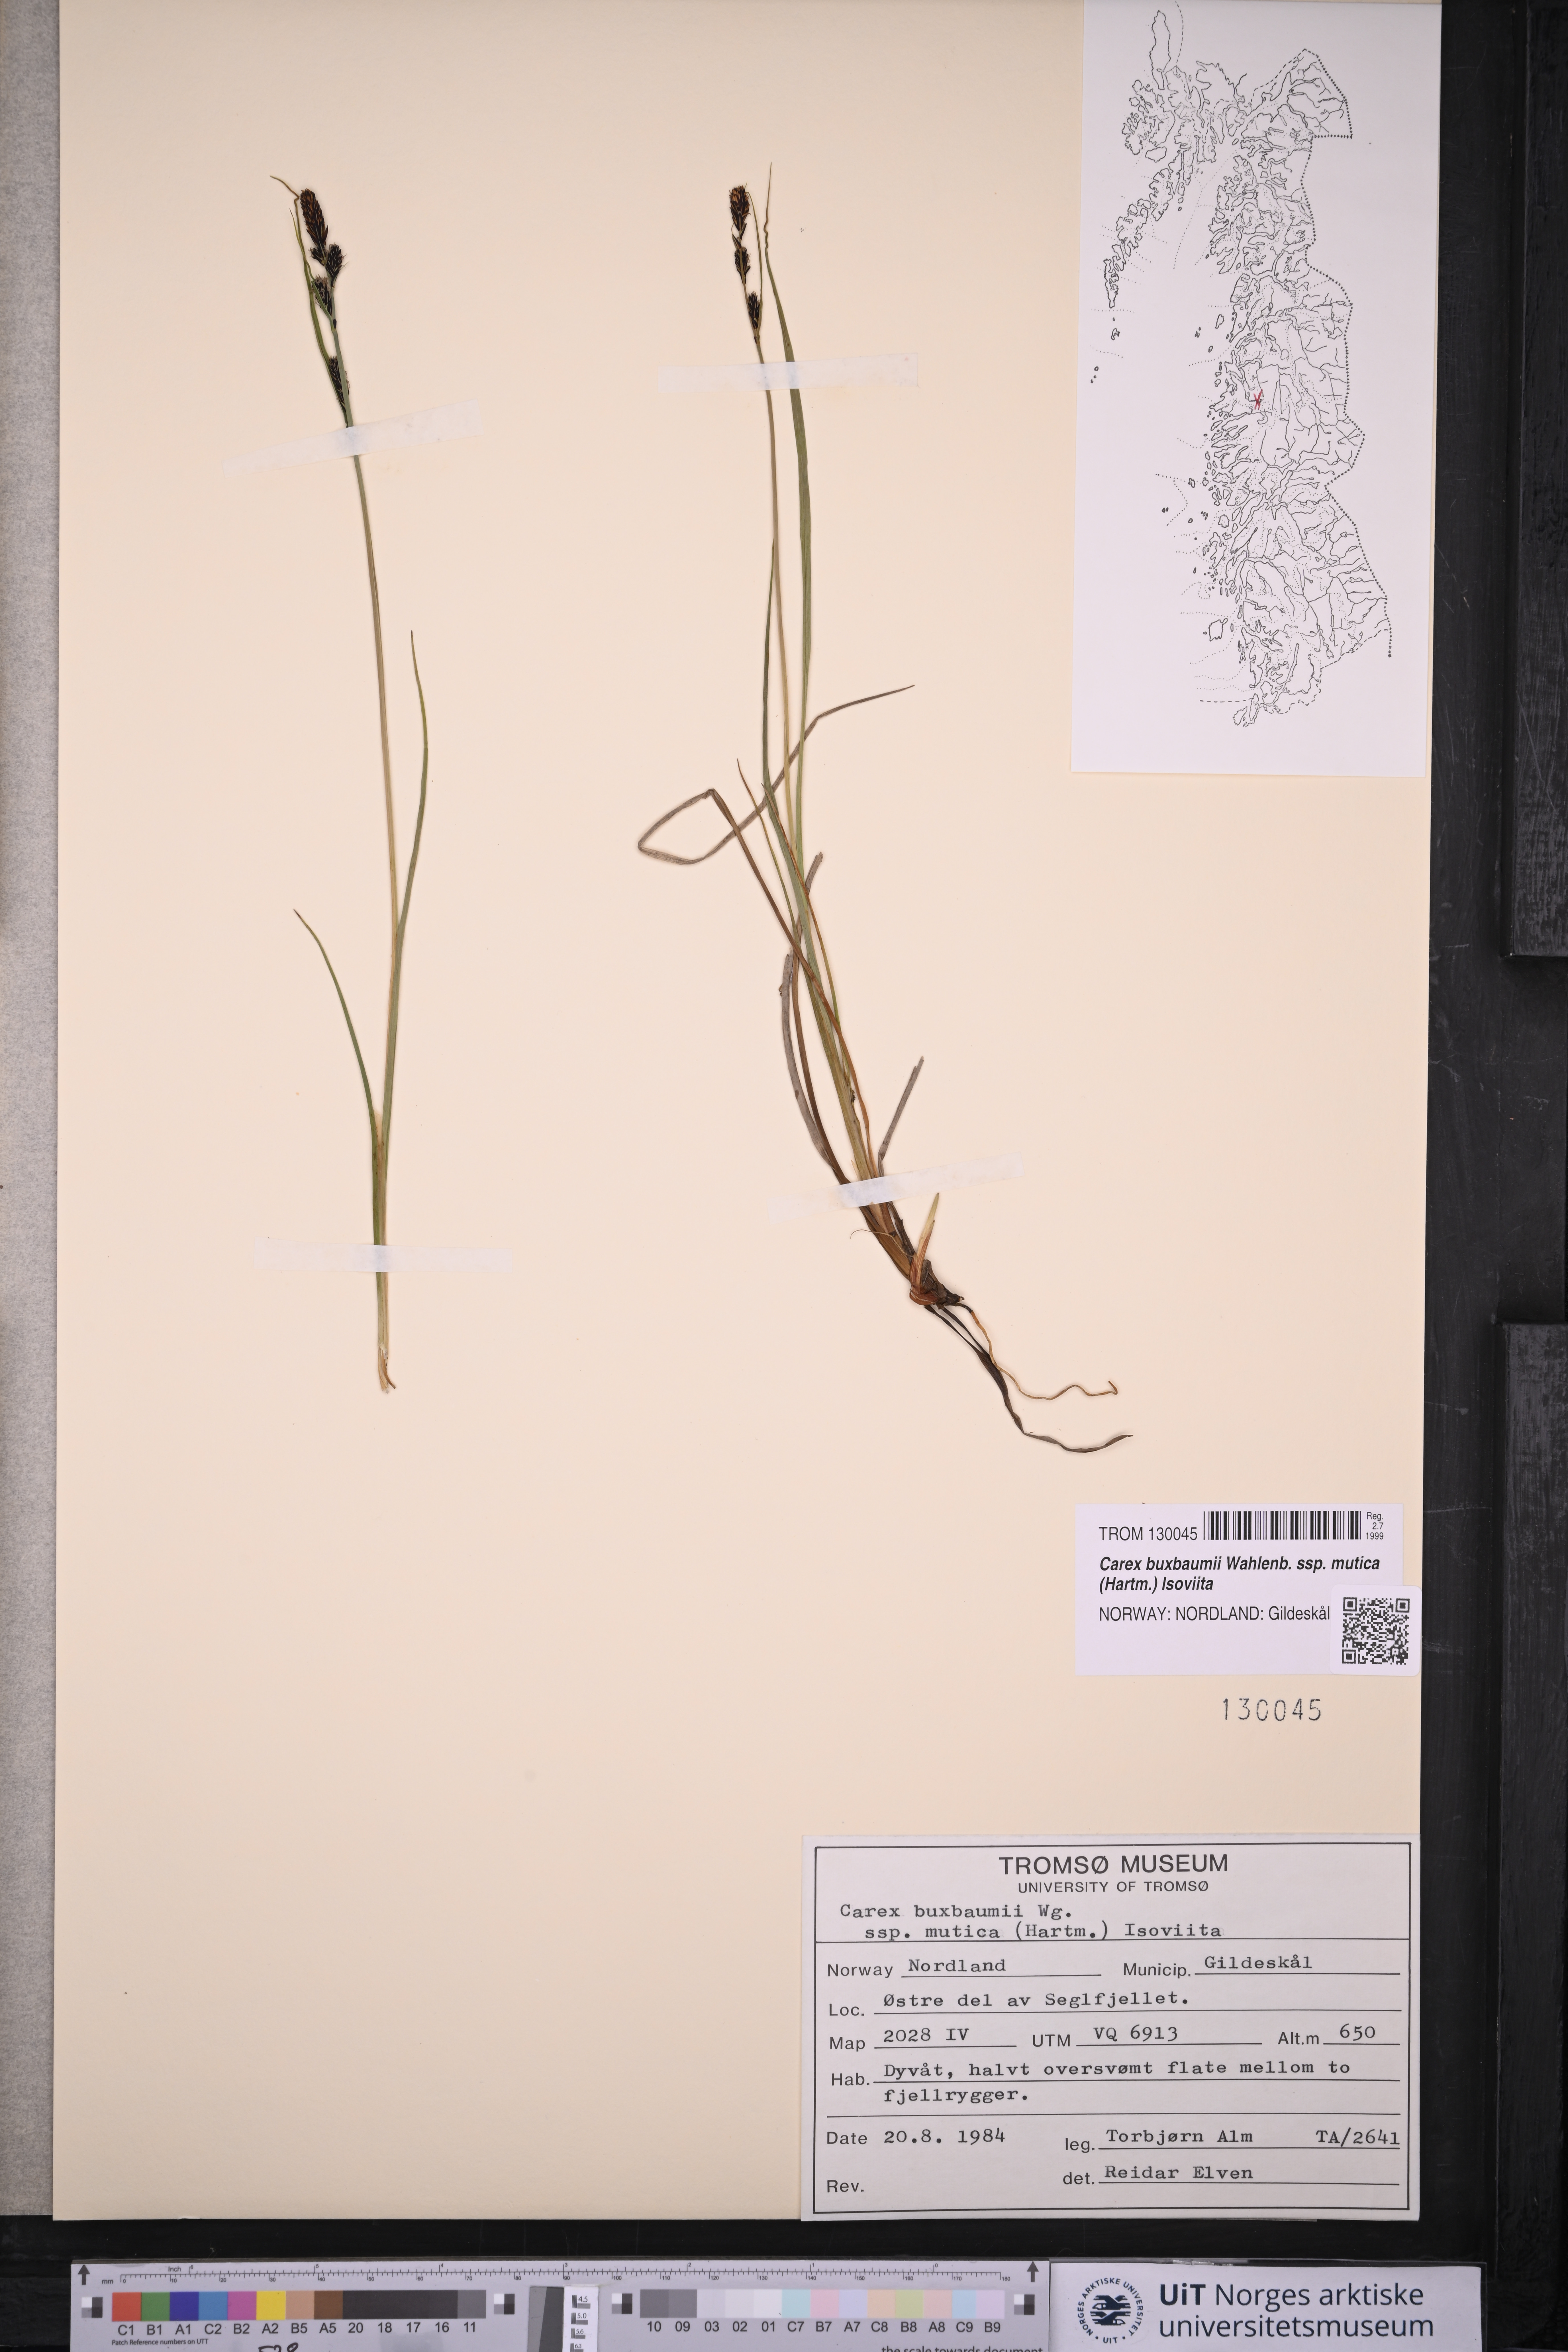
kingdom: Plantae
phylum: Tracheophyta
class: Liliopsida
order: Poales
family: Cyperaceae
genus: Carex
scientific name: Carex adelostoma
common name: Circumpolar sedge
